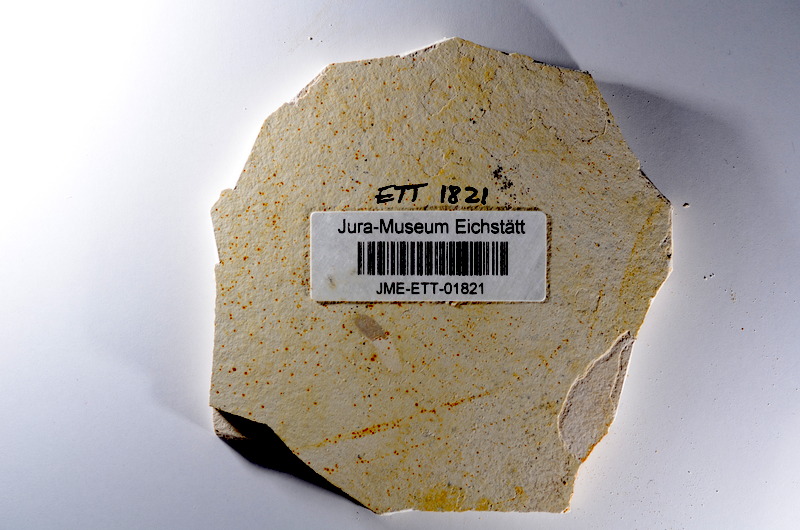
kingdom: Animalia
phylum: Chordata
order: Salmoniformes
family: Orthogonikleithridae
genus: Orthogonikleithrus
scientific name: Orthogonikleithrus hoelli
